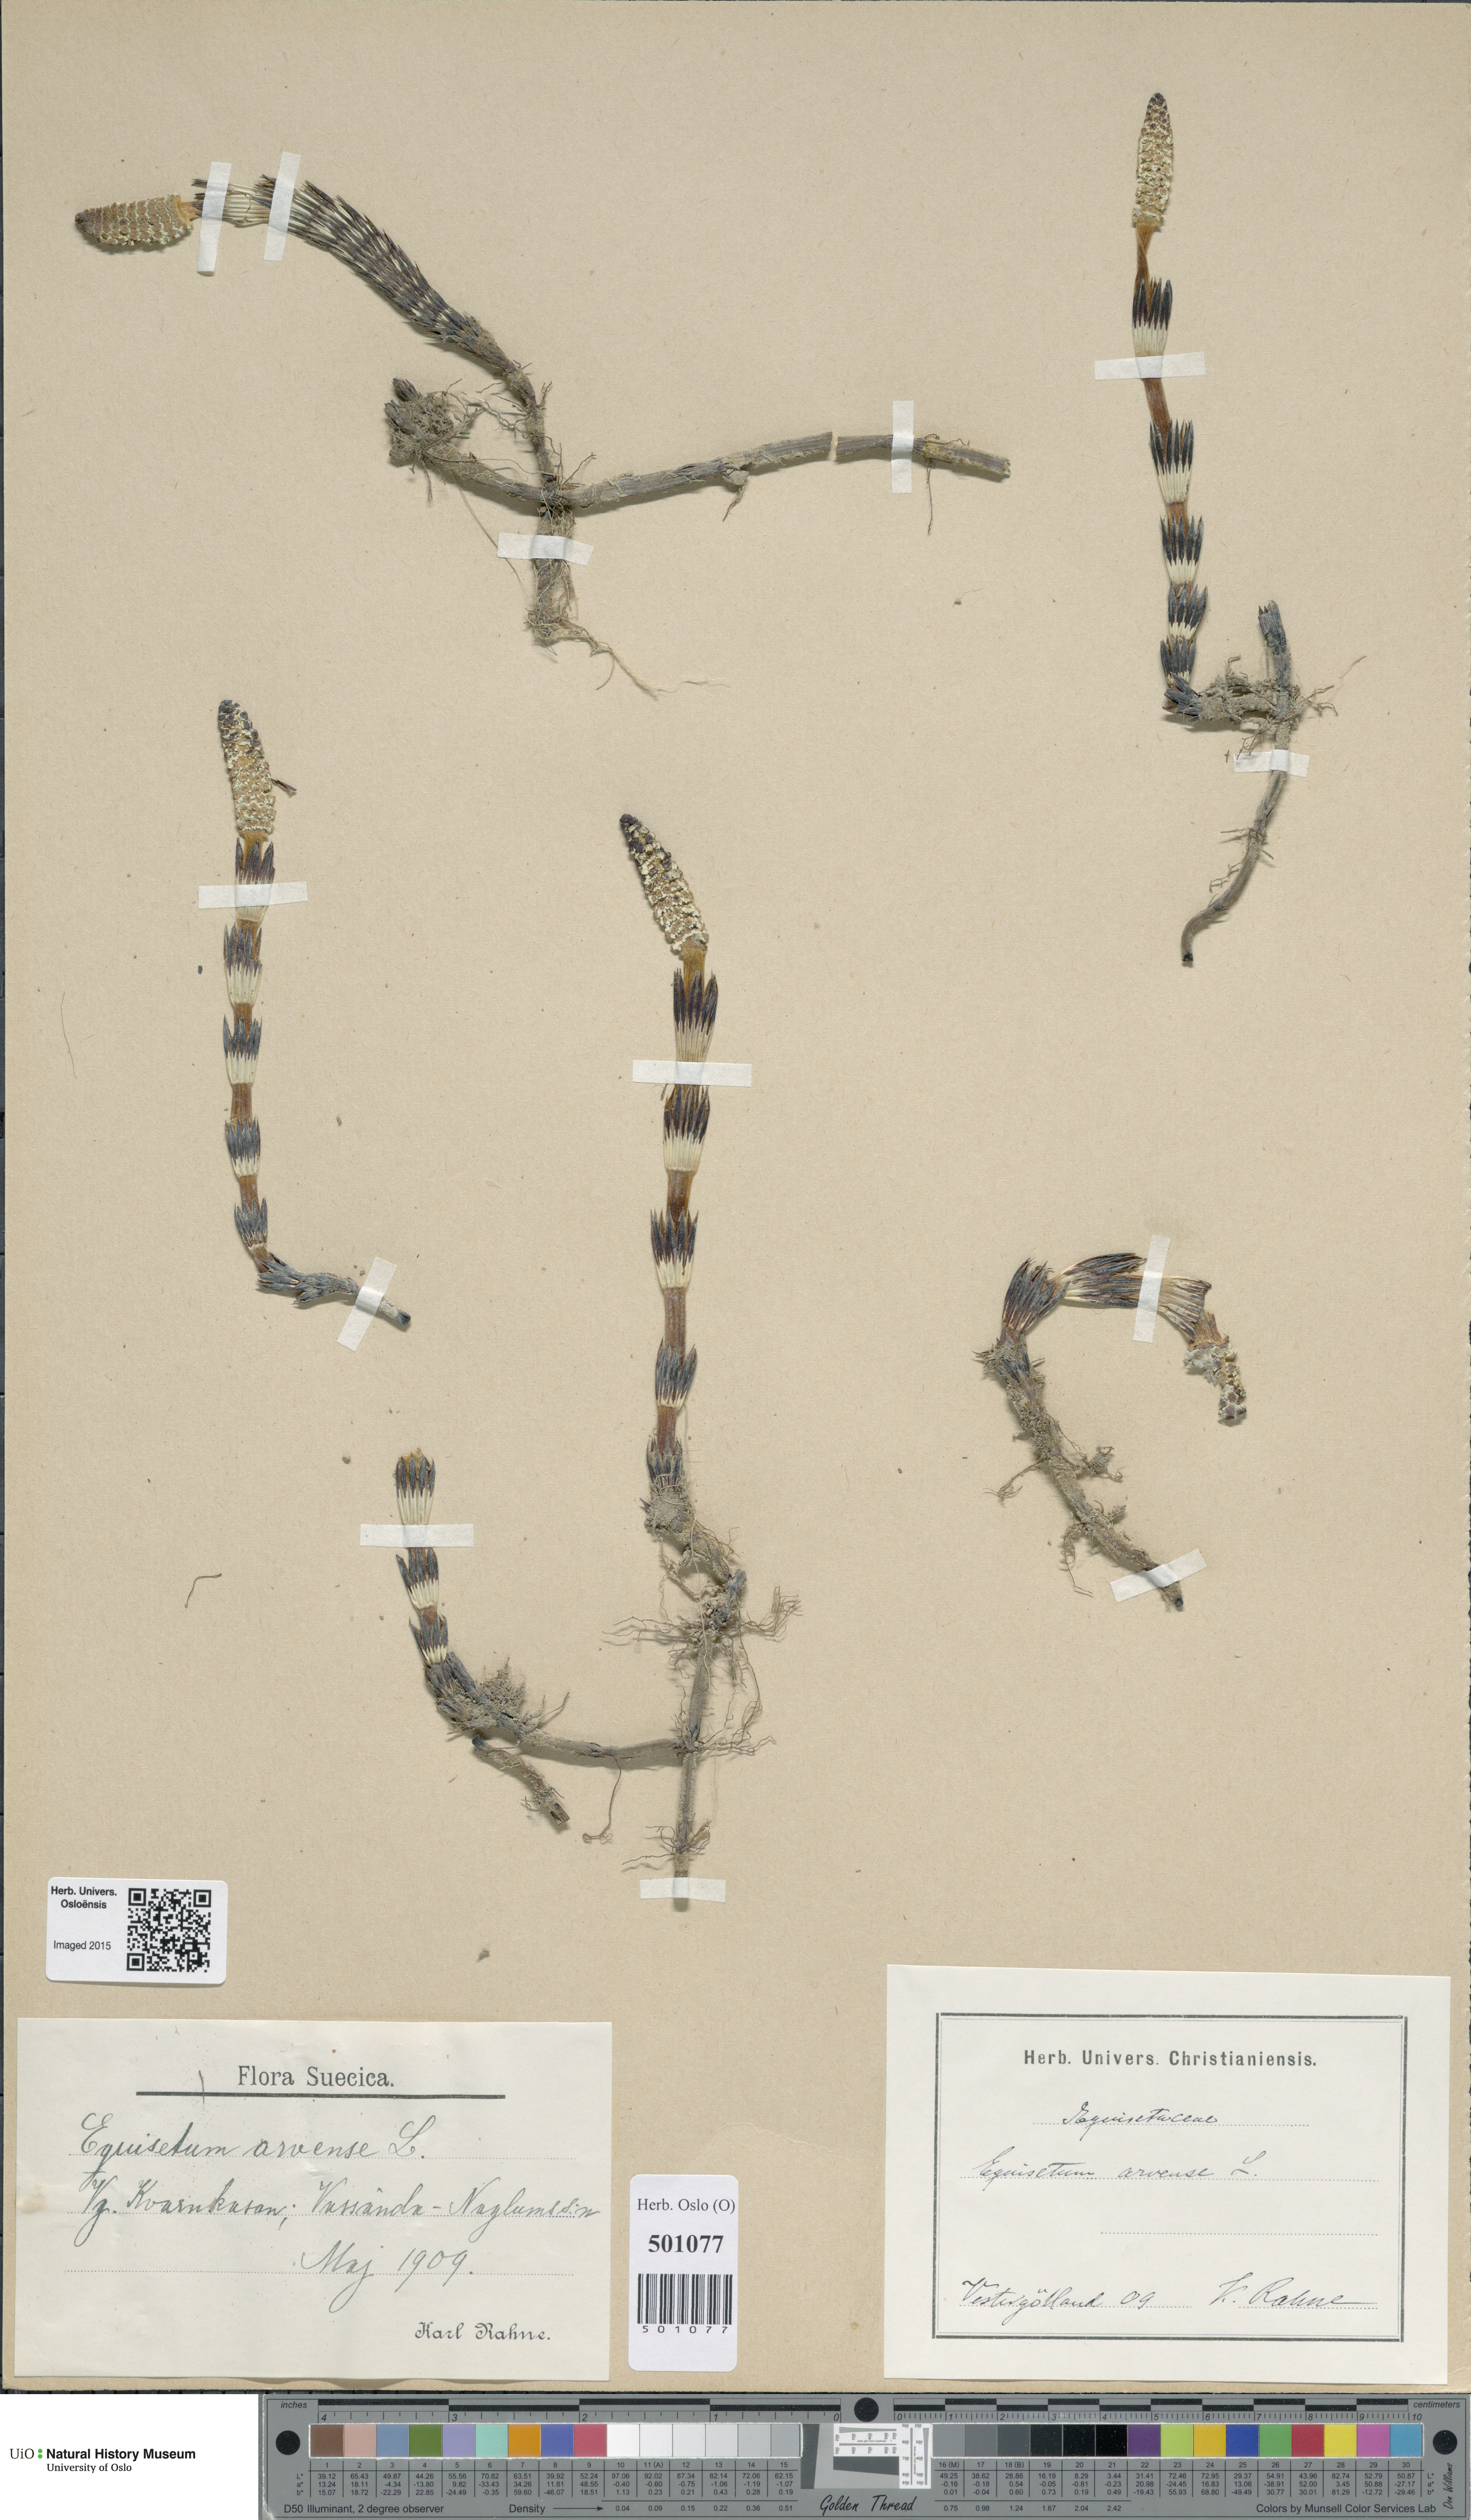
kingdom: Plantae
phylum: Tracheophyta
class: Polypodiopsida
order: Equisetales
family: Equisetaceae
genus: Equisetum
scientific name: Equisetum arvense
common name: Field horsetail
